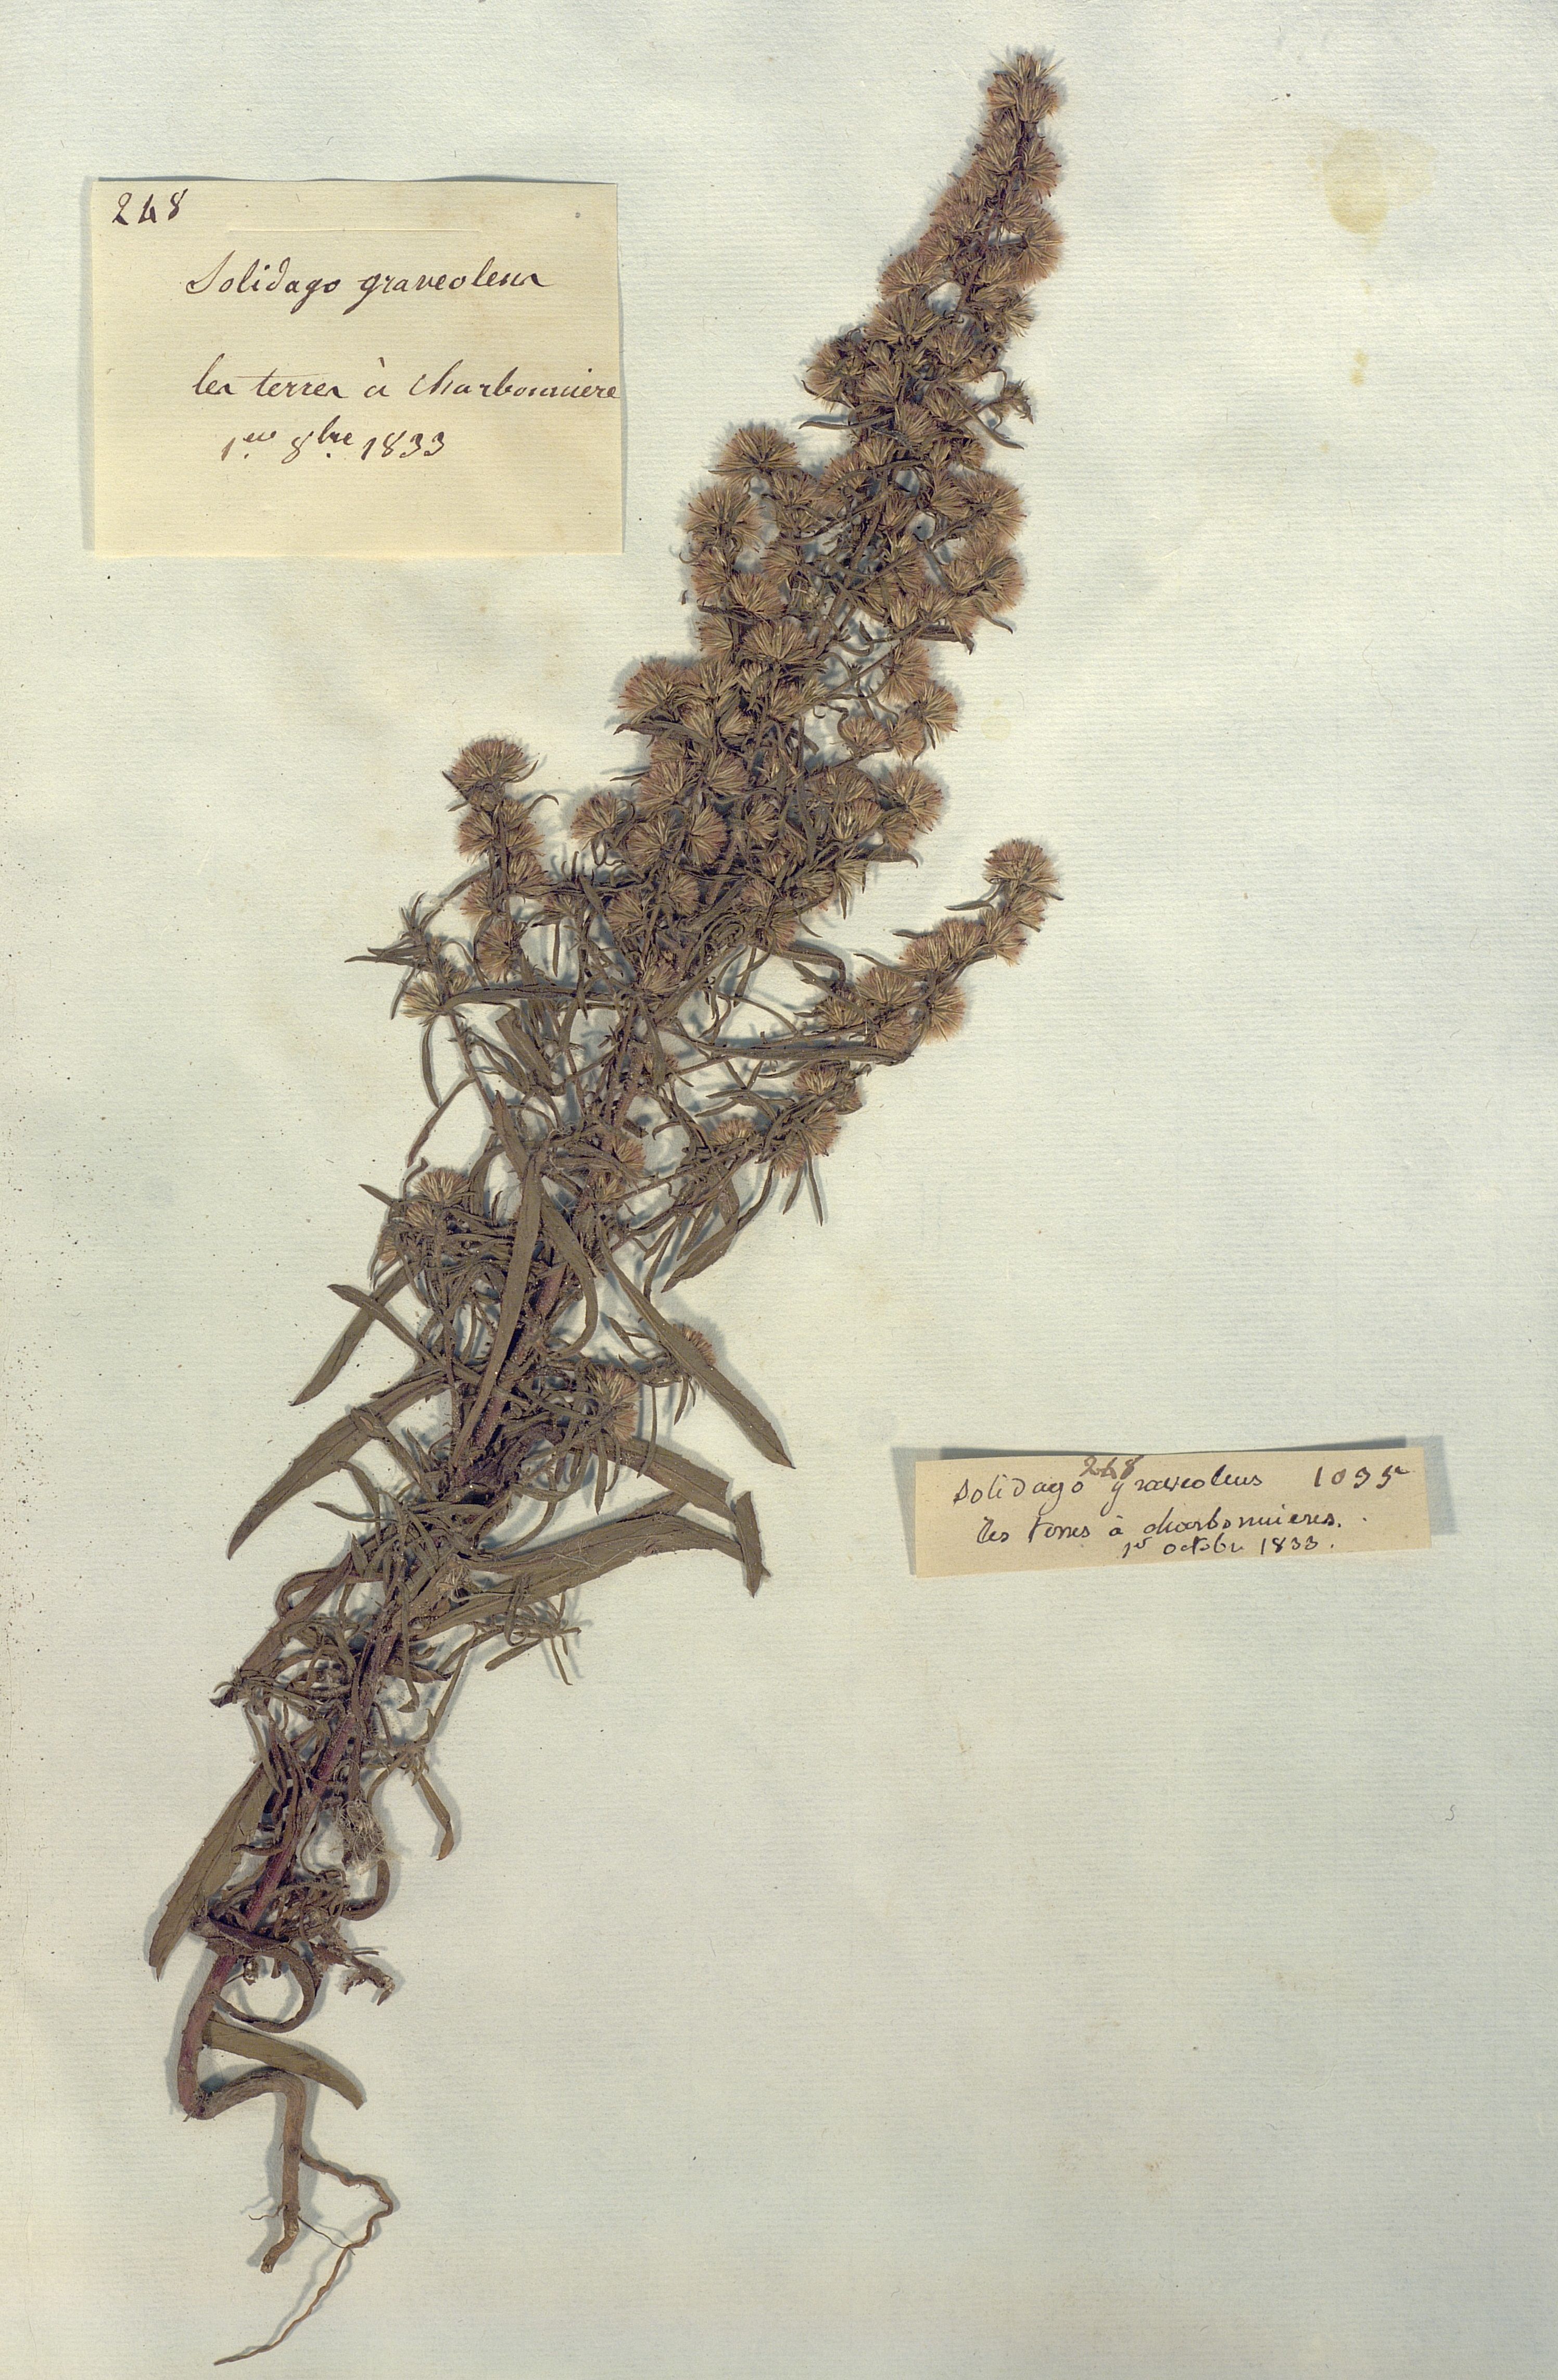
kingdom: Plantae
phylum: Tracheophyta
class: Magnoliopsida
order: Asterales
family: Asteraceae
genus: Dittrichia
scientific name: Dittrichia graveolens
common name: Stinking fleabane
